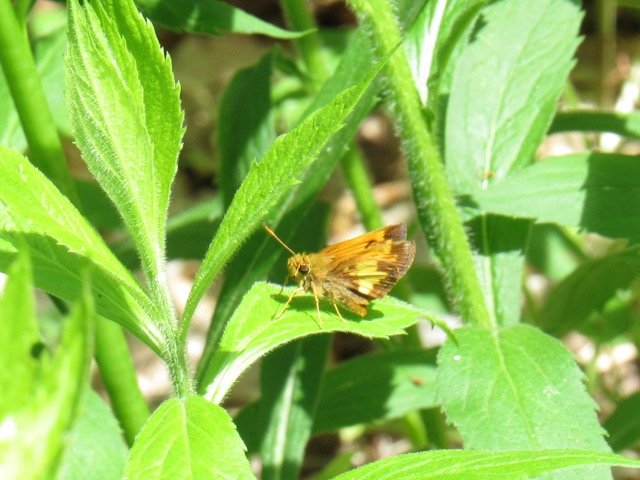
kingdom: Animalia
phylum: Arthropoda
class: Insecta
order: Lepidoptera
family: Hesperiidae
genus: Lon
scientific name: Lon hobomok
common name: Hobomok Skipper
